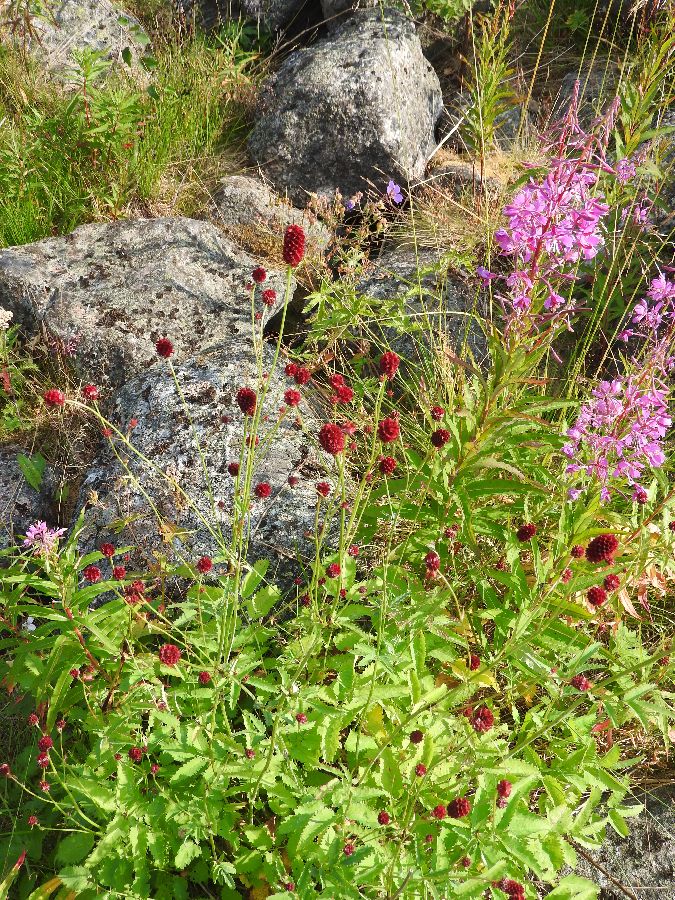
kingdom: Plantae
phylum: Tracheophyta
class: Magnoliopsida
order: Rosales
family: Rosaceae
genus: Sanguisorba
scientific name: Sanguisorba officinalis
